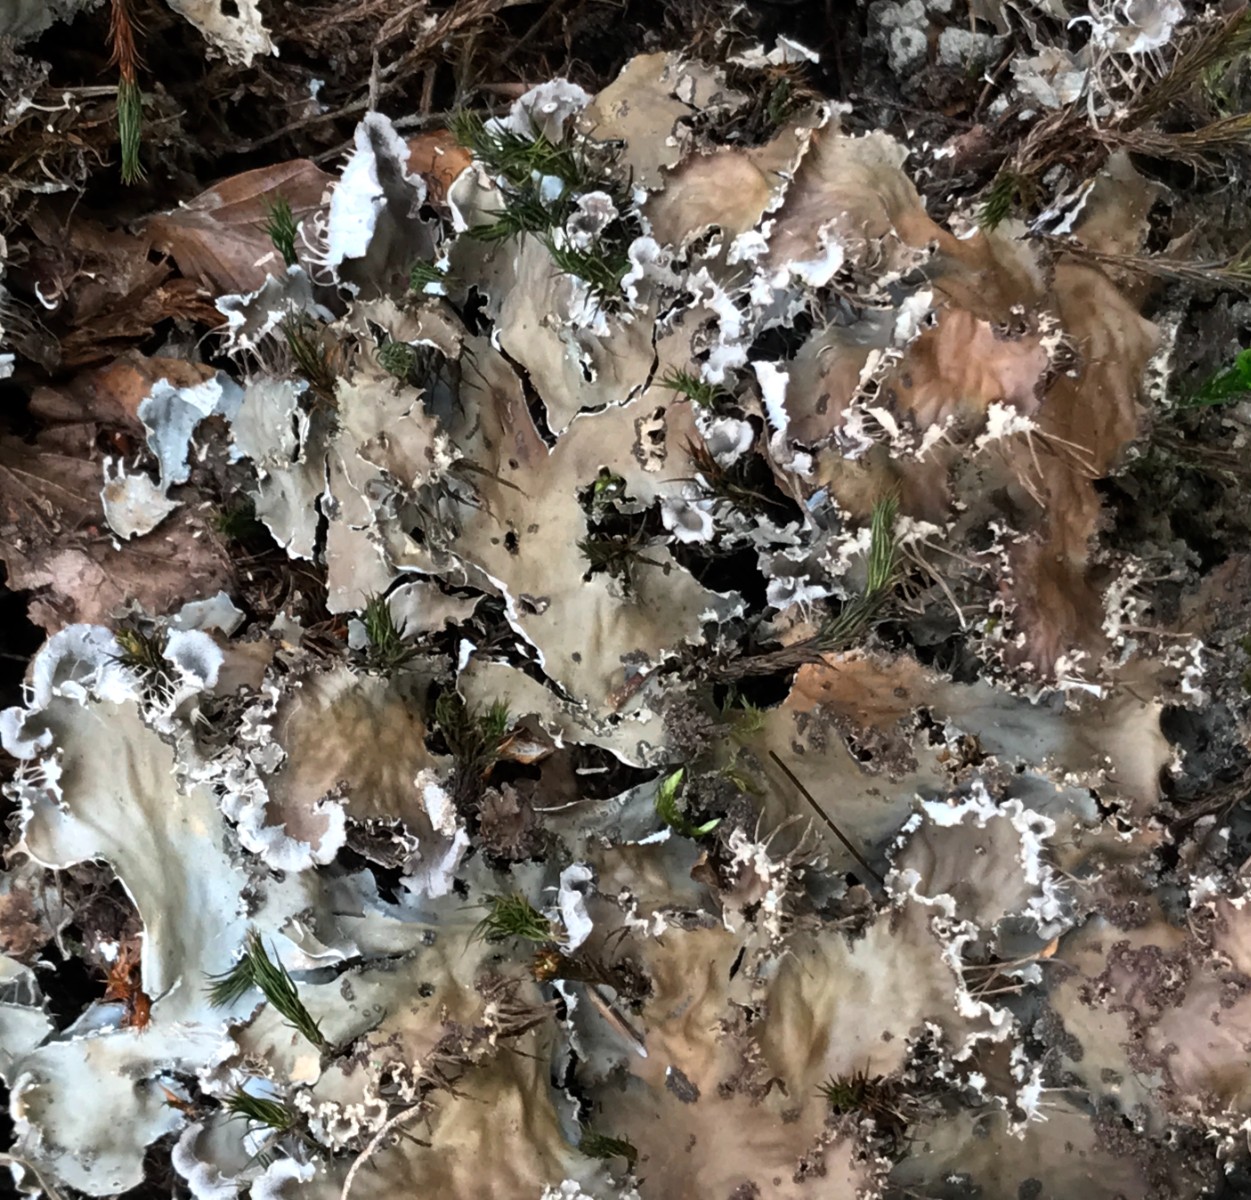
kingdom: Fungi
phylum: Ascomycota
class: Lecanoromycetes
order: Peltigerales
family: Peltigeraceae
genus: Peltigera
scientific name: Peltigera praetextata
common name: kruset skjoldlav
